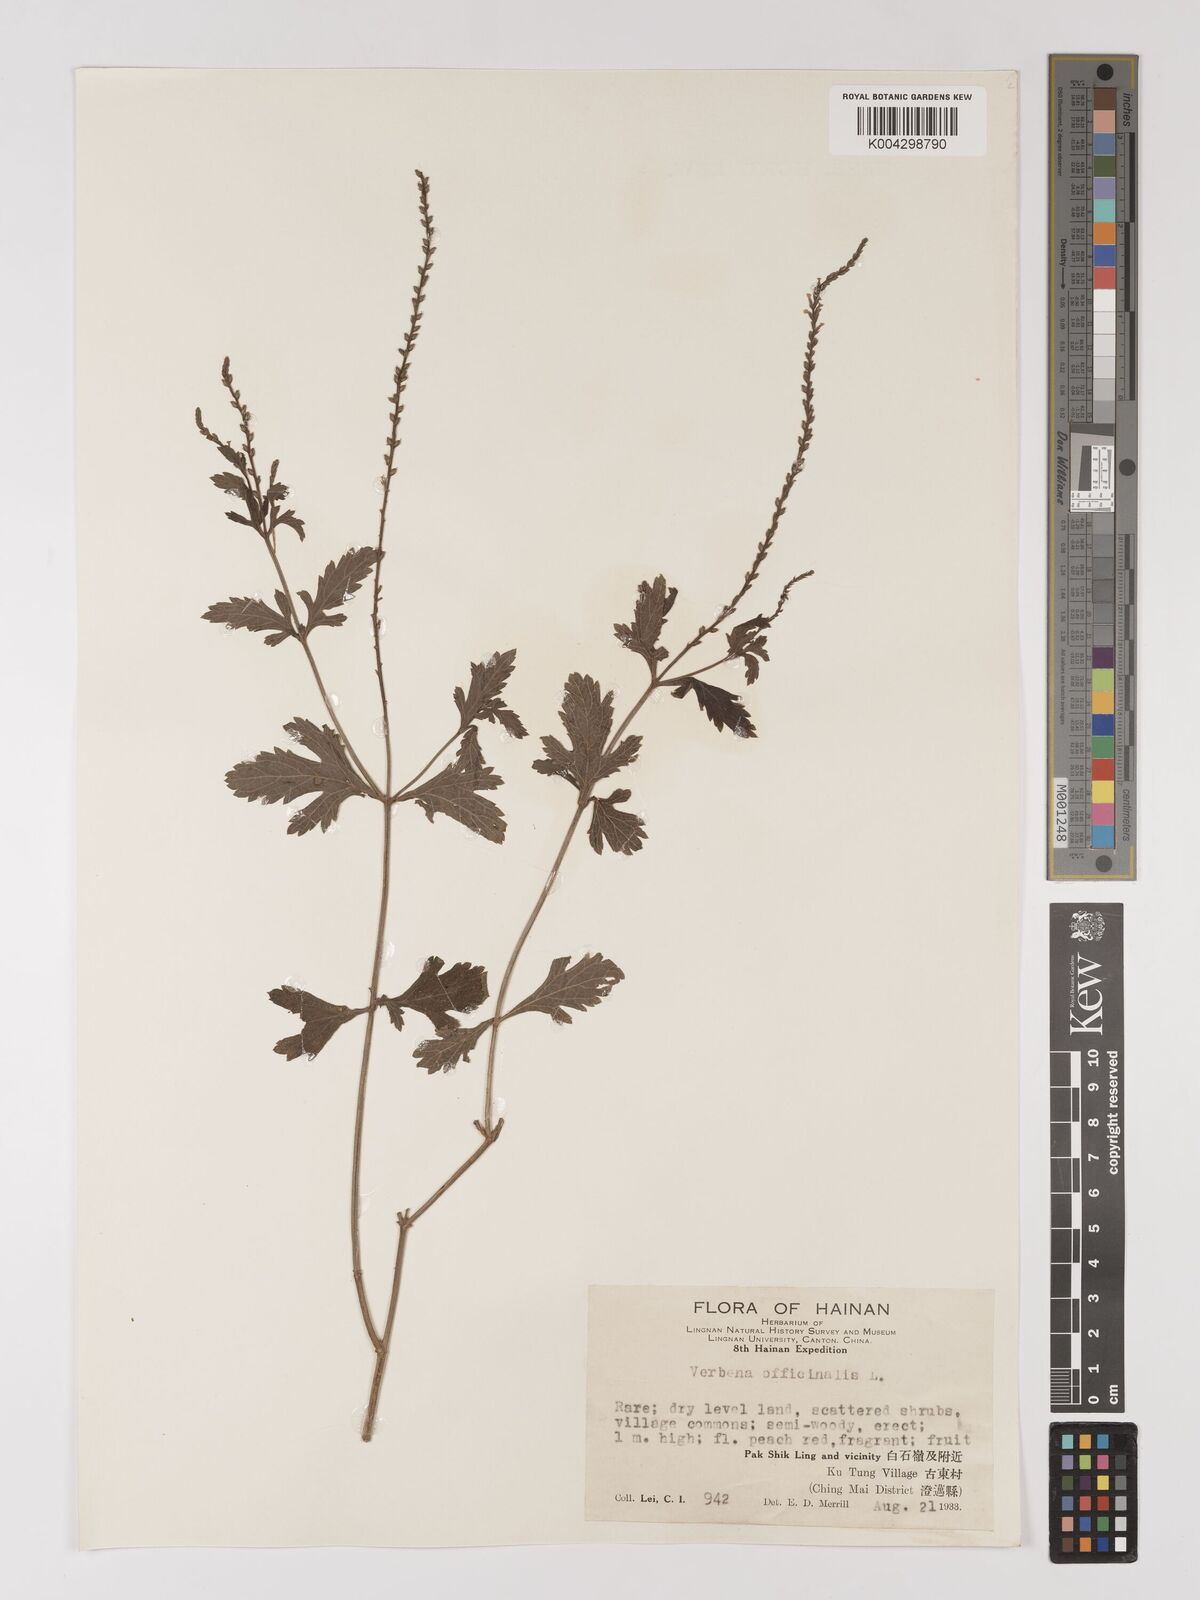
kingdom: Plantae
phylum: Tracheophyta
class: Magnoliopsida
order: Lamiales
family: Verbenaceae
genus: Verbena
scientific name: Verbena officinalis
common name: Vervain
